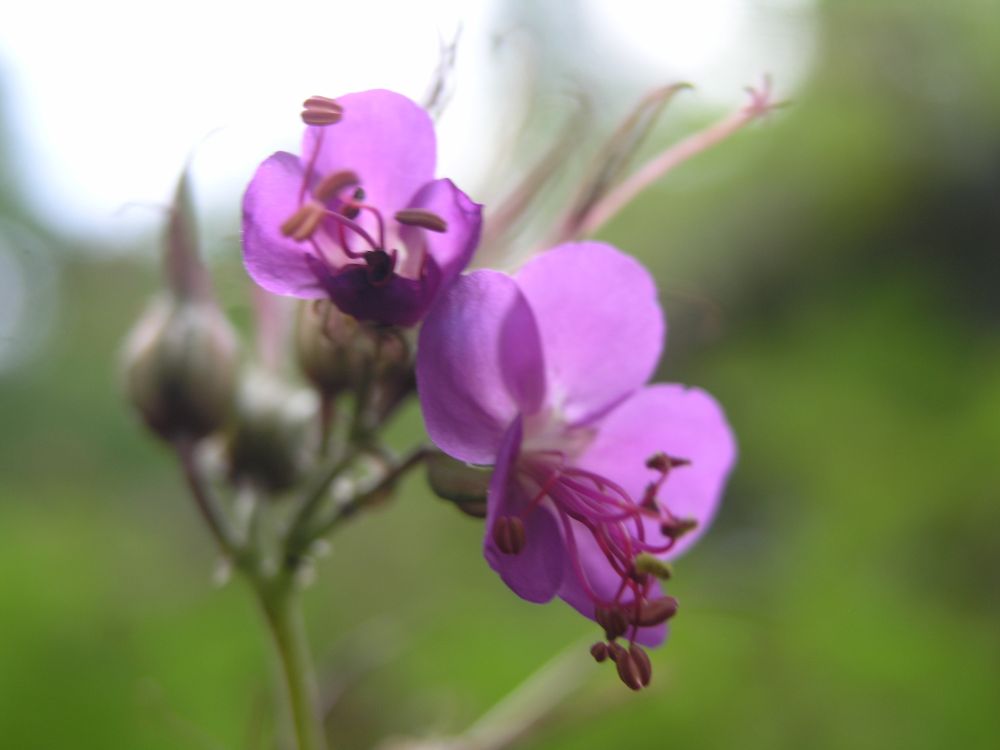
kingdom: Plantae
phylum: Tracheophyta
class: Magnoliopsida
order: Geraniales
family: Geraniaceae
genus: Geranium
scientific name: Geranium macrorrhizum
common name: Rock crane's-bill
